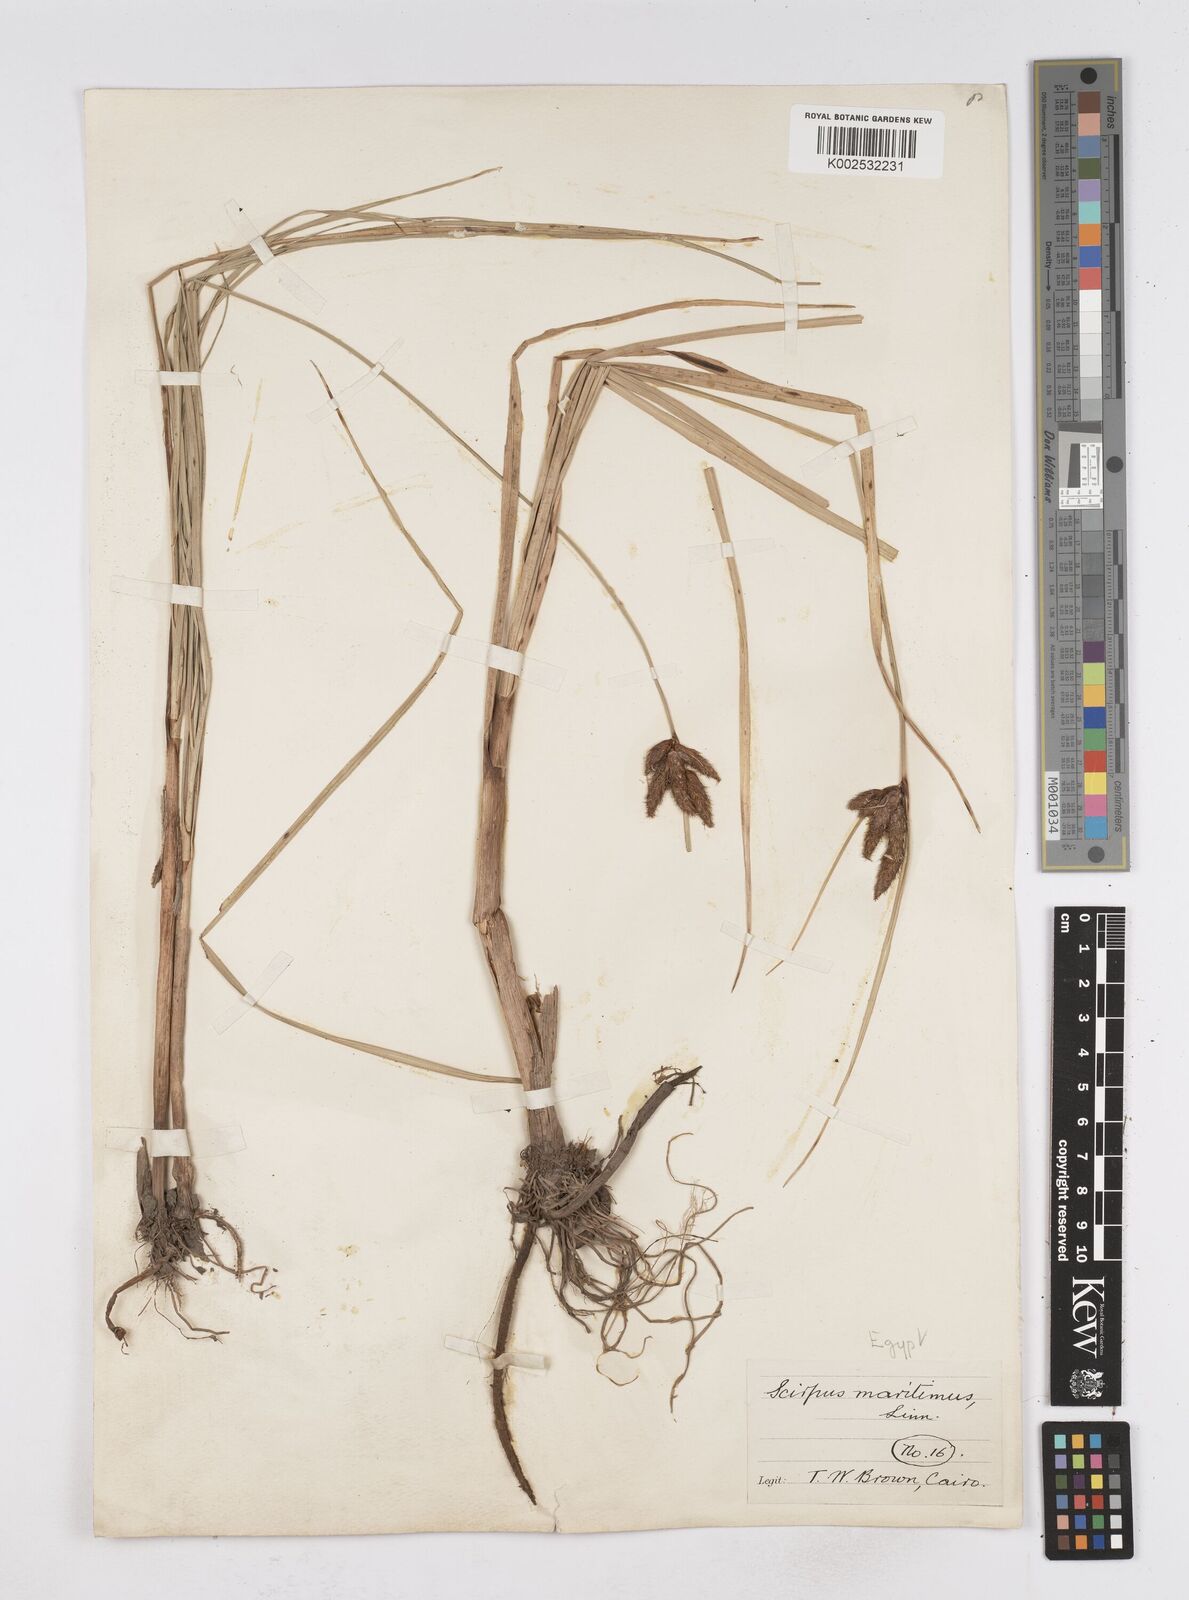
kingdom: Plantae
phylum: Tracheophyta
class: Liliopsida
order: Poales
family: Cyperaceae
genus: Bolboschoenus
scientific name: Bolboschoenus maritimus
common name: Sea club-rush
